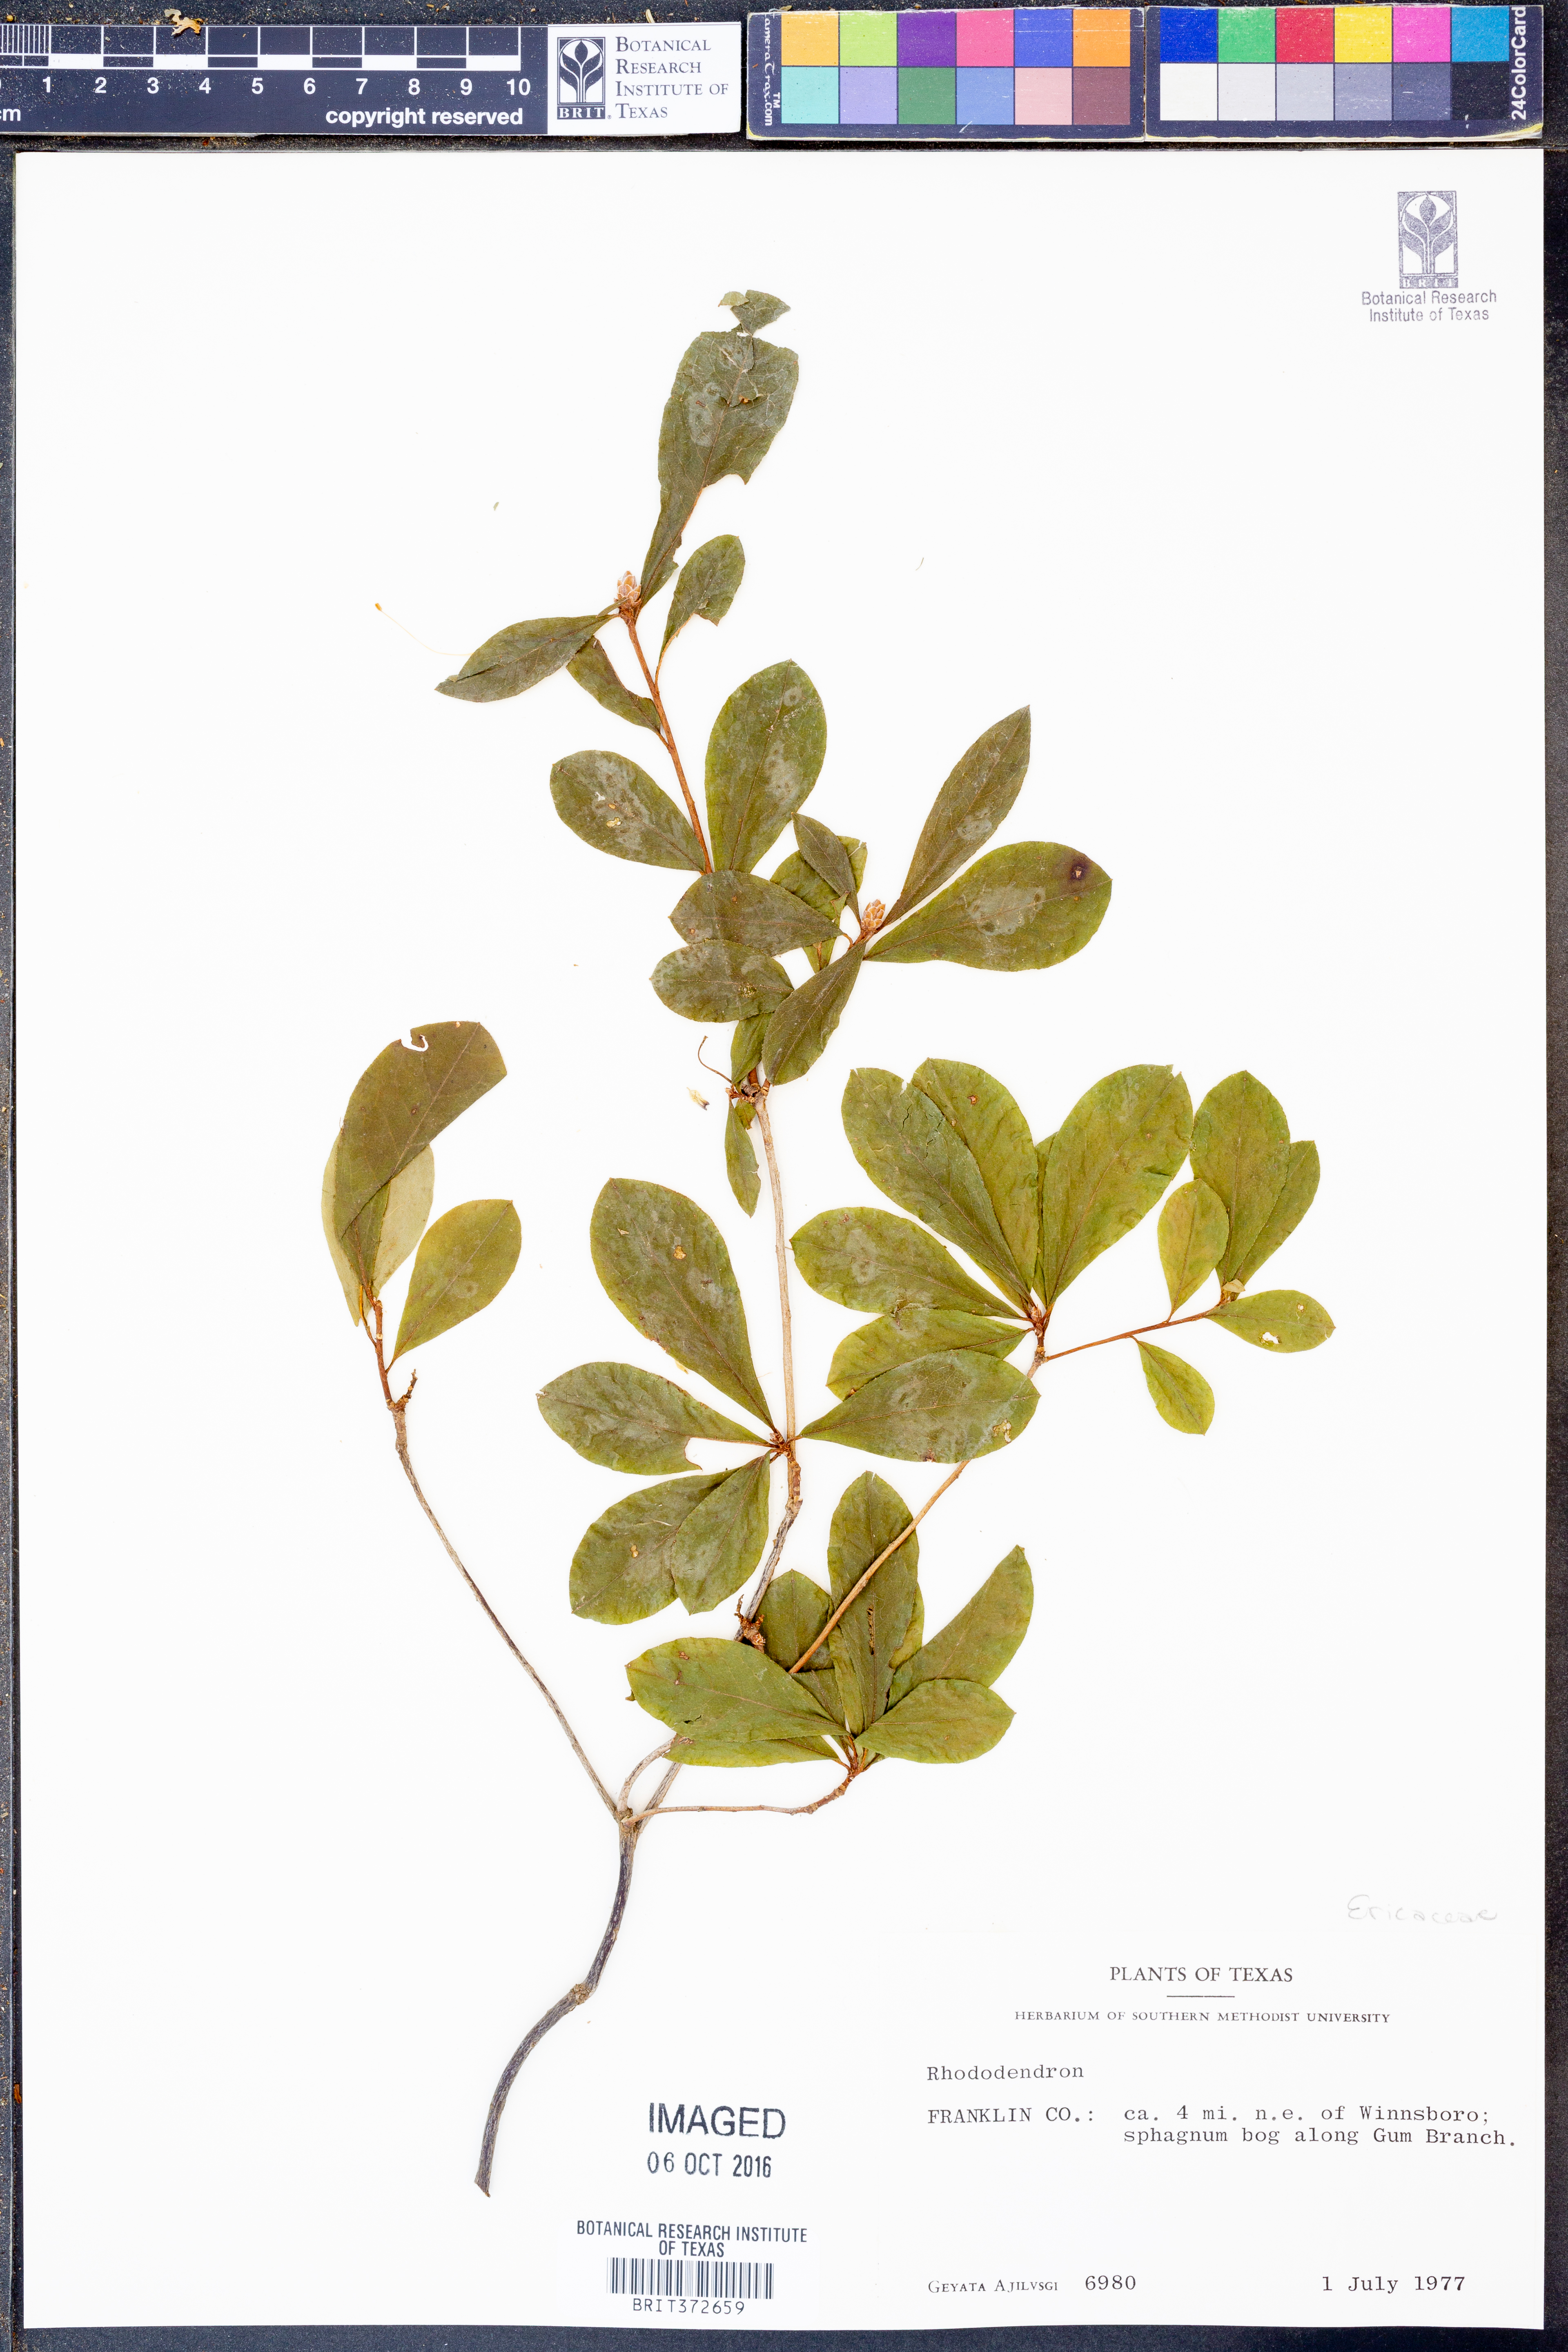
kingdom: Plantae
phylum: Tracheophyta
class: Magnoliopsida
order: Ericales
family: Ericaceae
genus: Rhododendron
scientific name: Rhododendron
